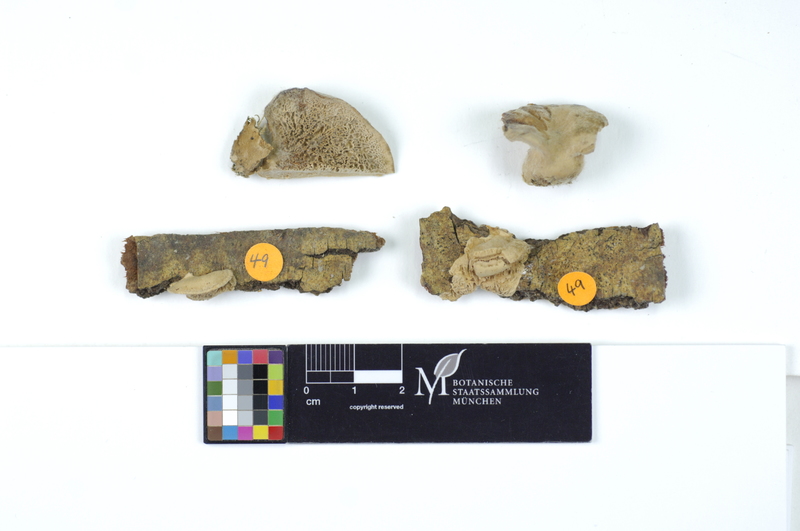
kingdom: Fungi
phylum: Basidiomycota
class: Agaricomycetes
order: Polyporales
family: Podoscyphaceae
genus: Abortiporus
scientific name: Abortiporus biennis
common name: Blushing rosette
